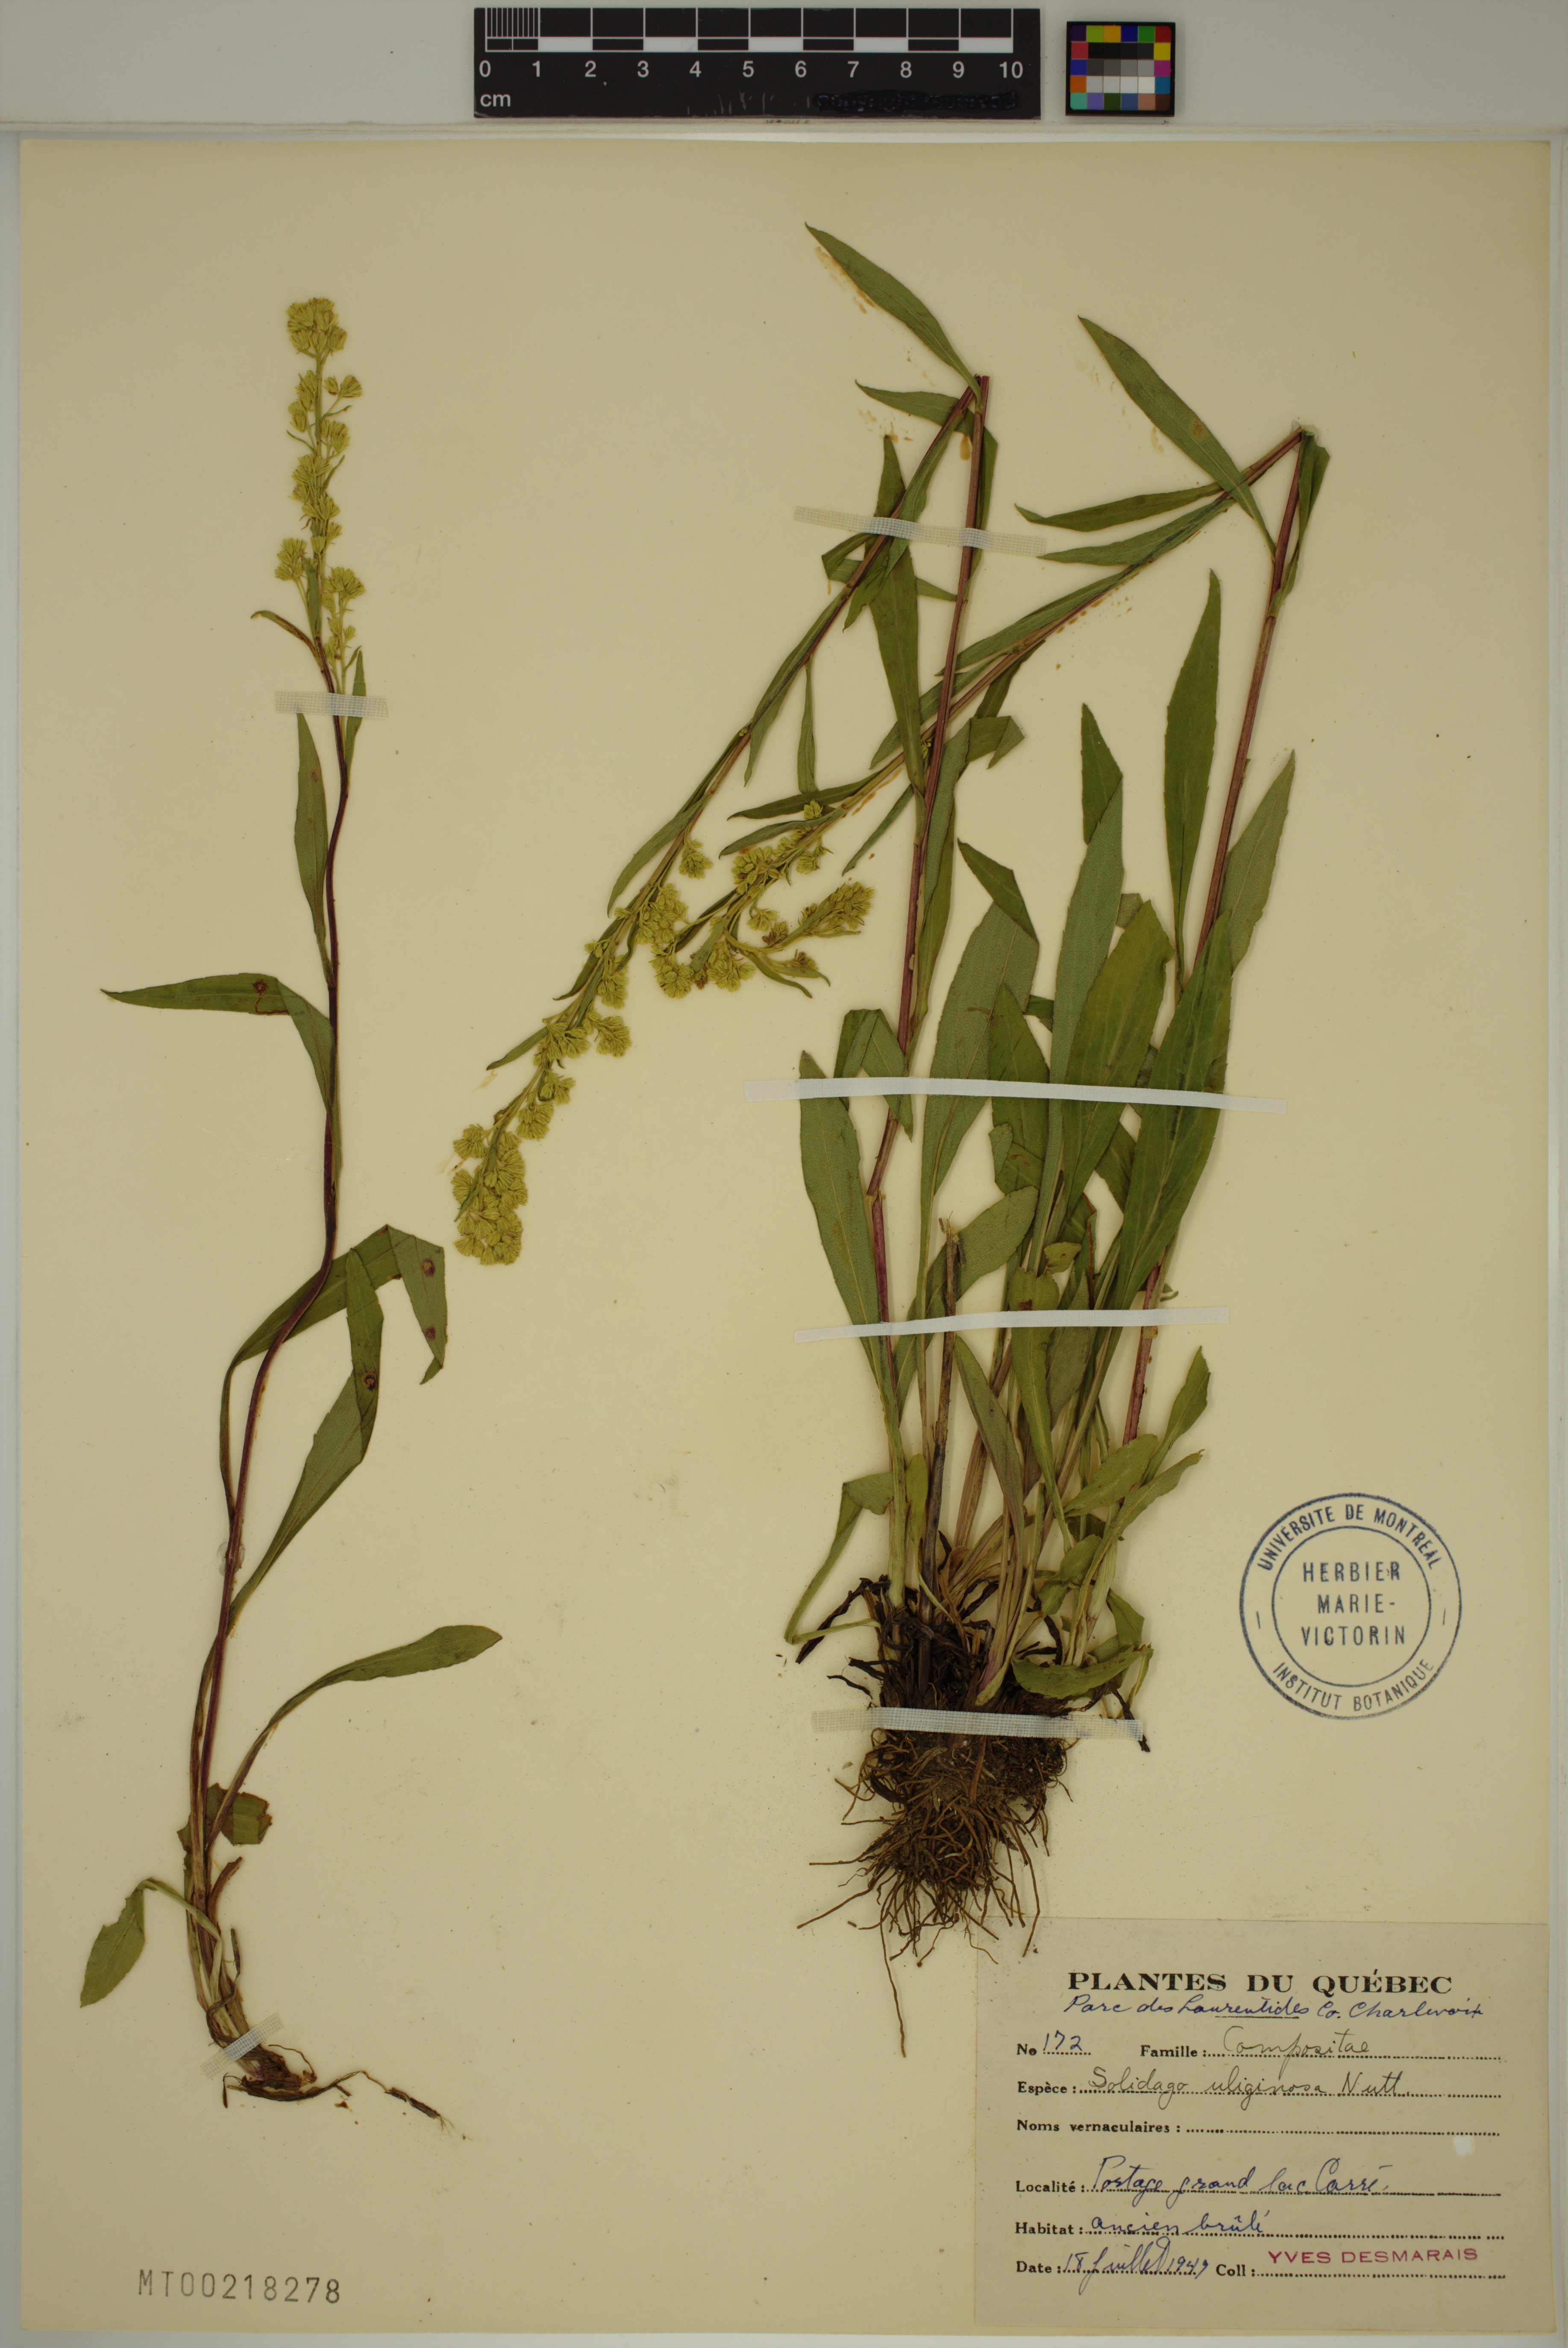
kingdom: Plantae
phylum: Tracheophyta
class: Magnoliopsida
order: Asterales
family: Asteraceae
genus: Solidago
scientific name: Solidago uliginosa
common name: Bog goldenrod
